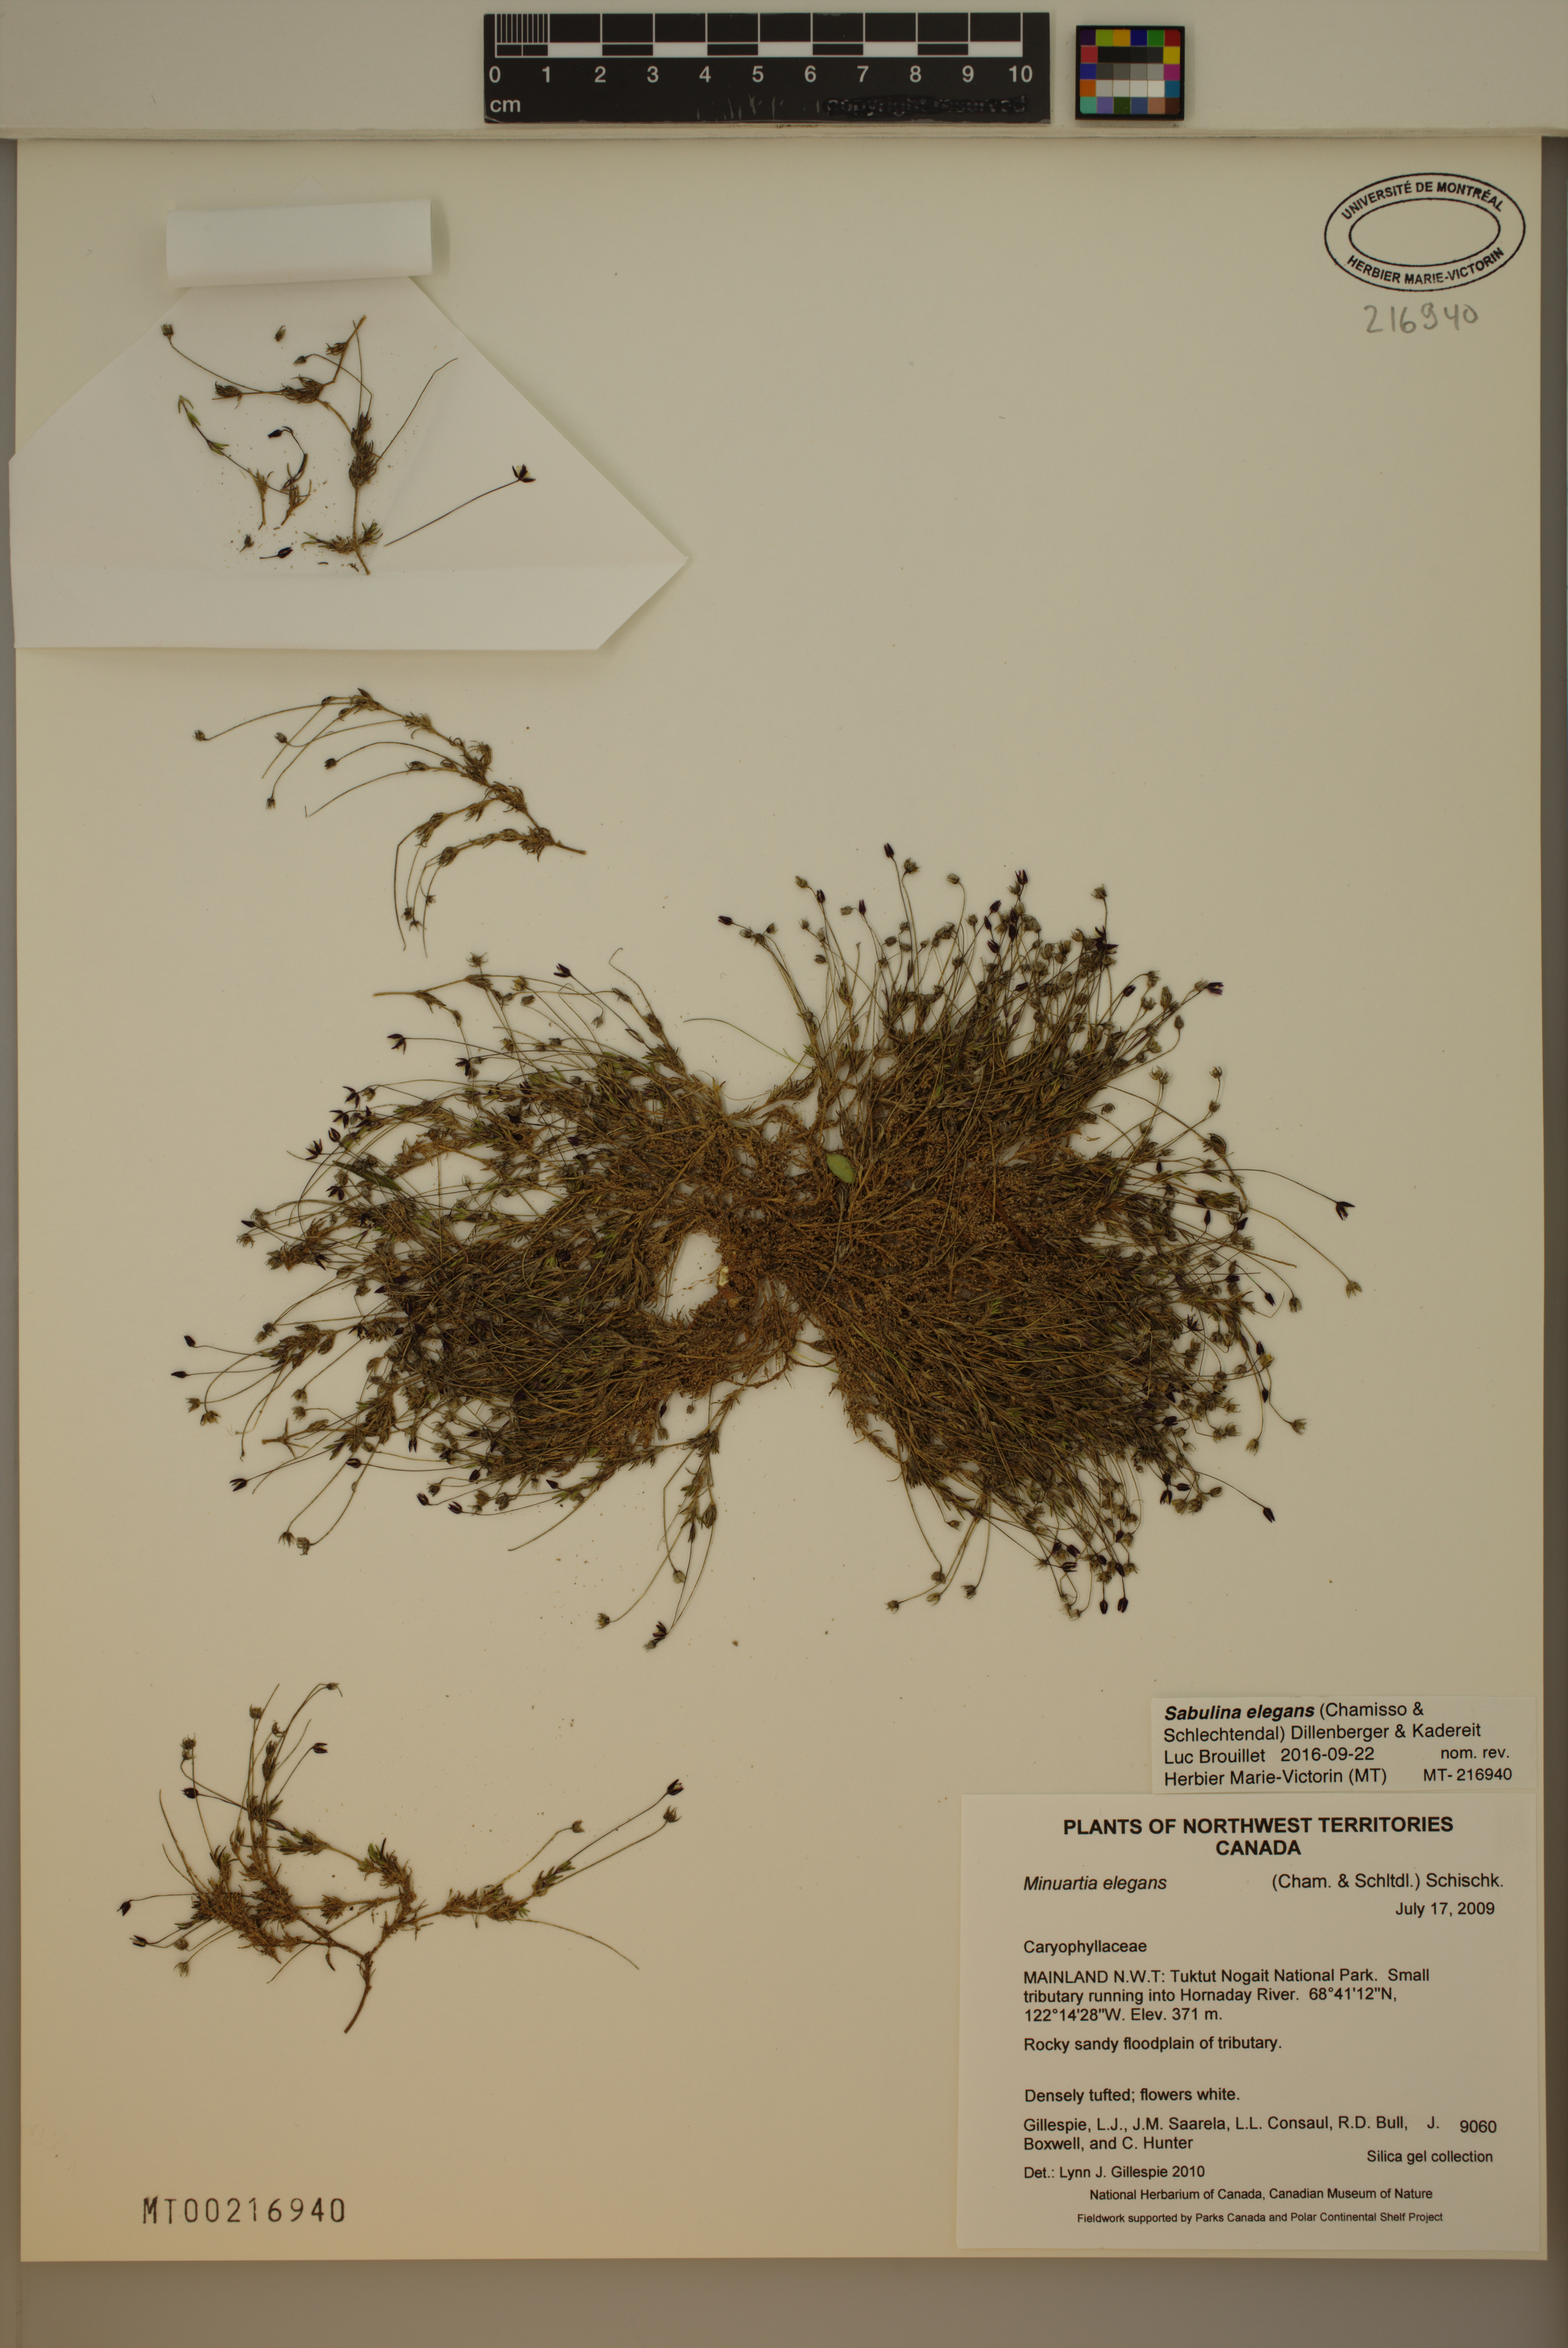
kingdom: Plantae
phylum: Tracheophyta
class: Magnoliopsida
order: Caryophyllales
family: Caryophyllaceae
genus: Sabulina
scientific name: Sabulina elegans
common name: Elegant stitchwort
